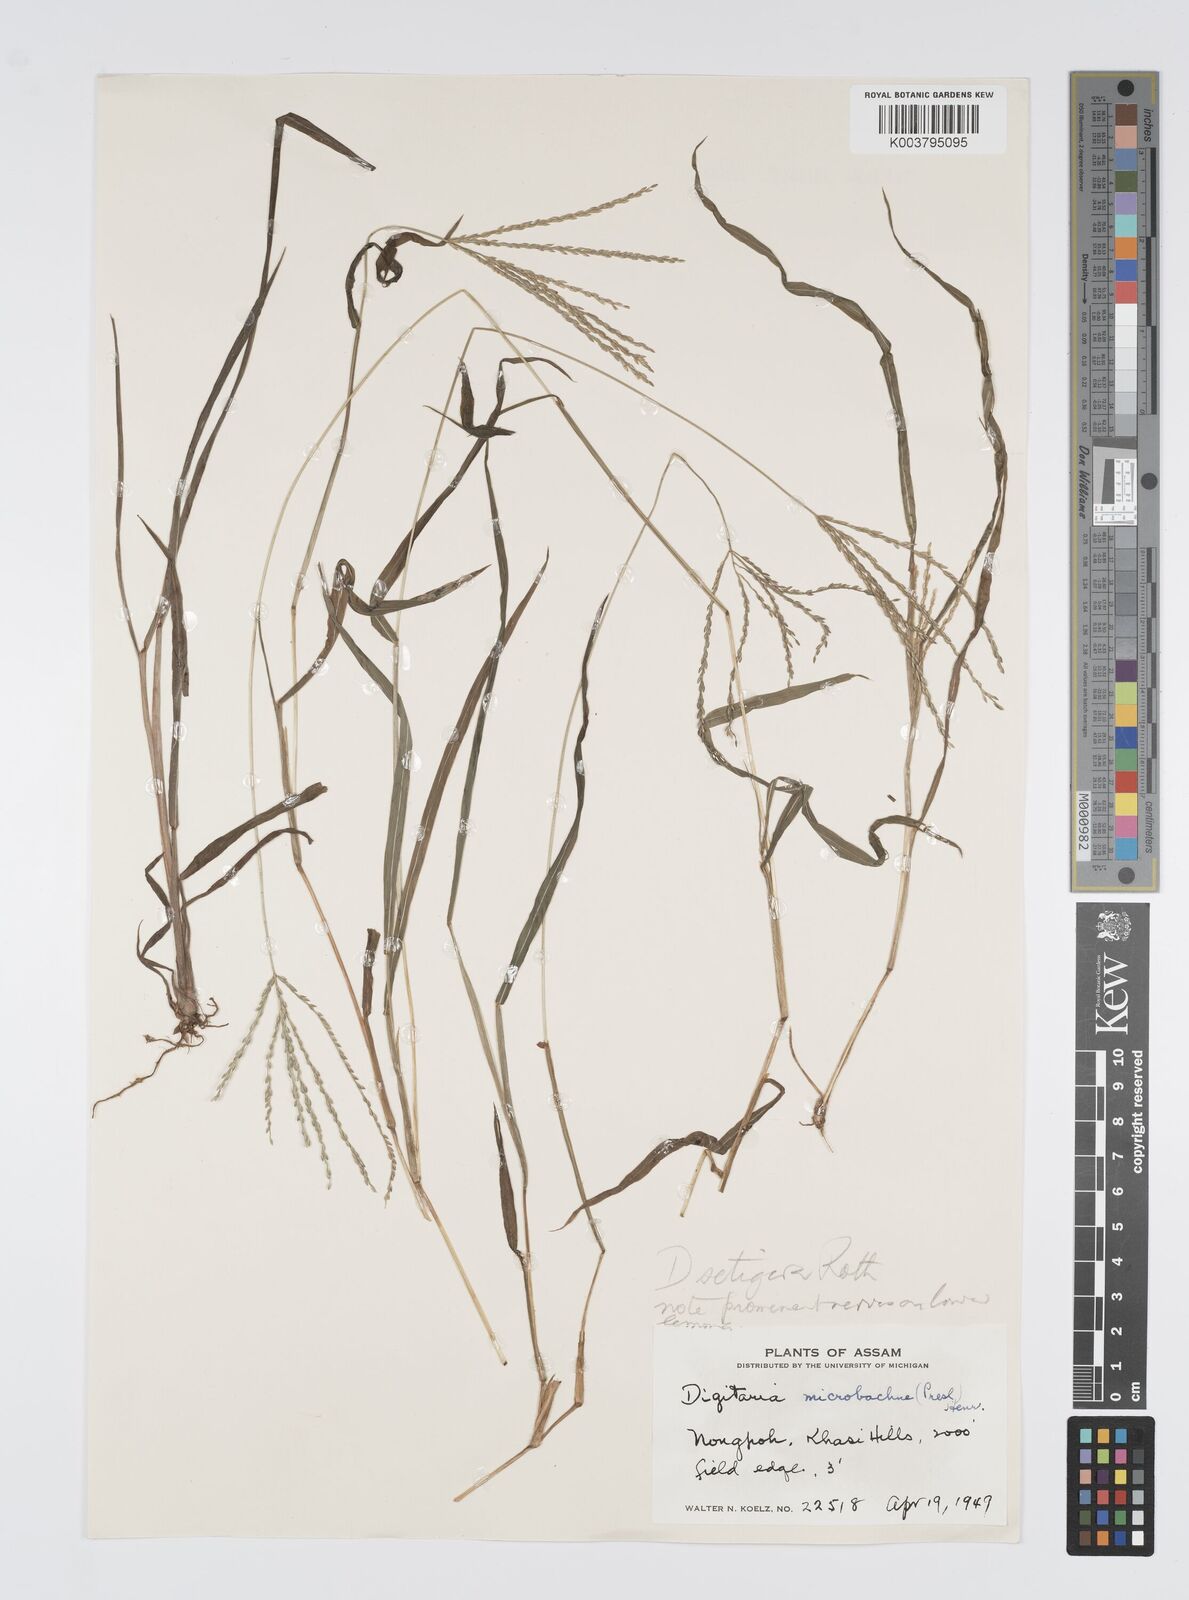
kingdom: Plantae
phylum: Tracheophyta
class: Liliopsida
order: Poales
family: Poaceae
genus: Digitaria
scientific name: Digitaria setigera
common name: East indian crabgrass
